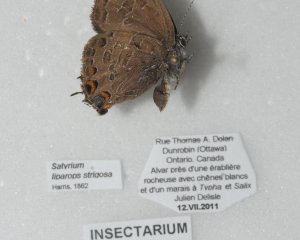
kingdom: Animalia
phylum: Arthropoda
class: Insecta
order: Lepidoptera
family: Lycaenidae
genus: Satyrium
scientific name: Satyrium liparops
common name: Striped Hairstreak
